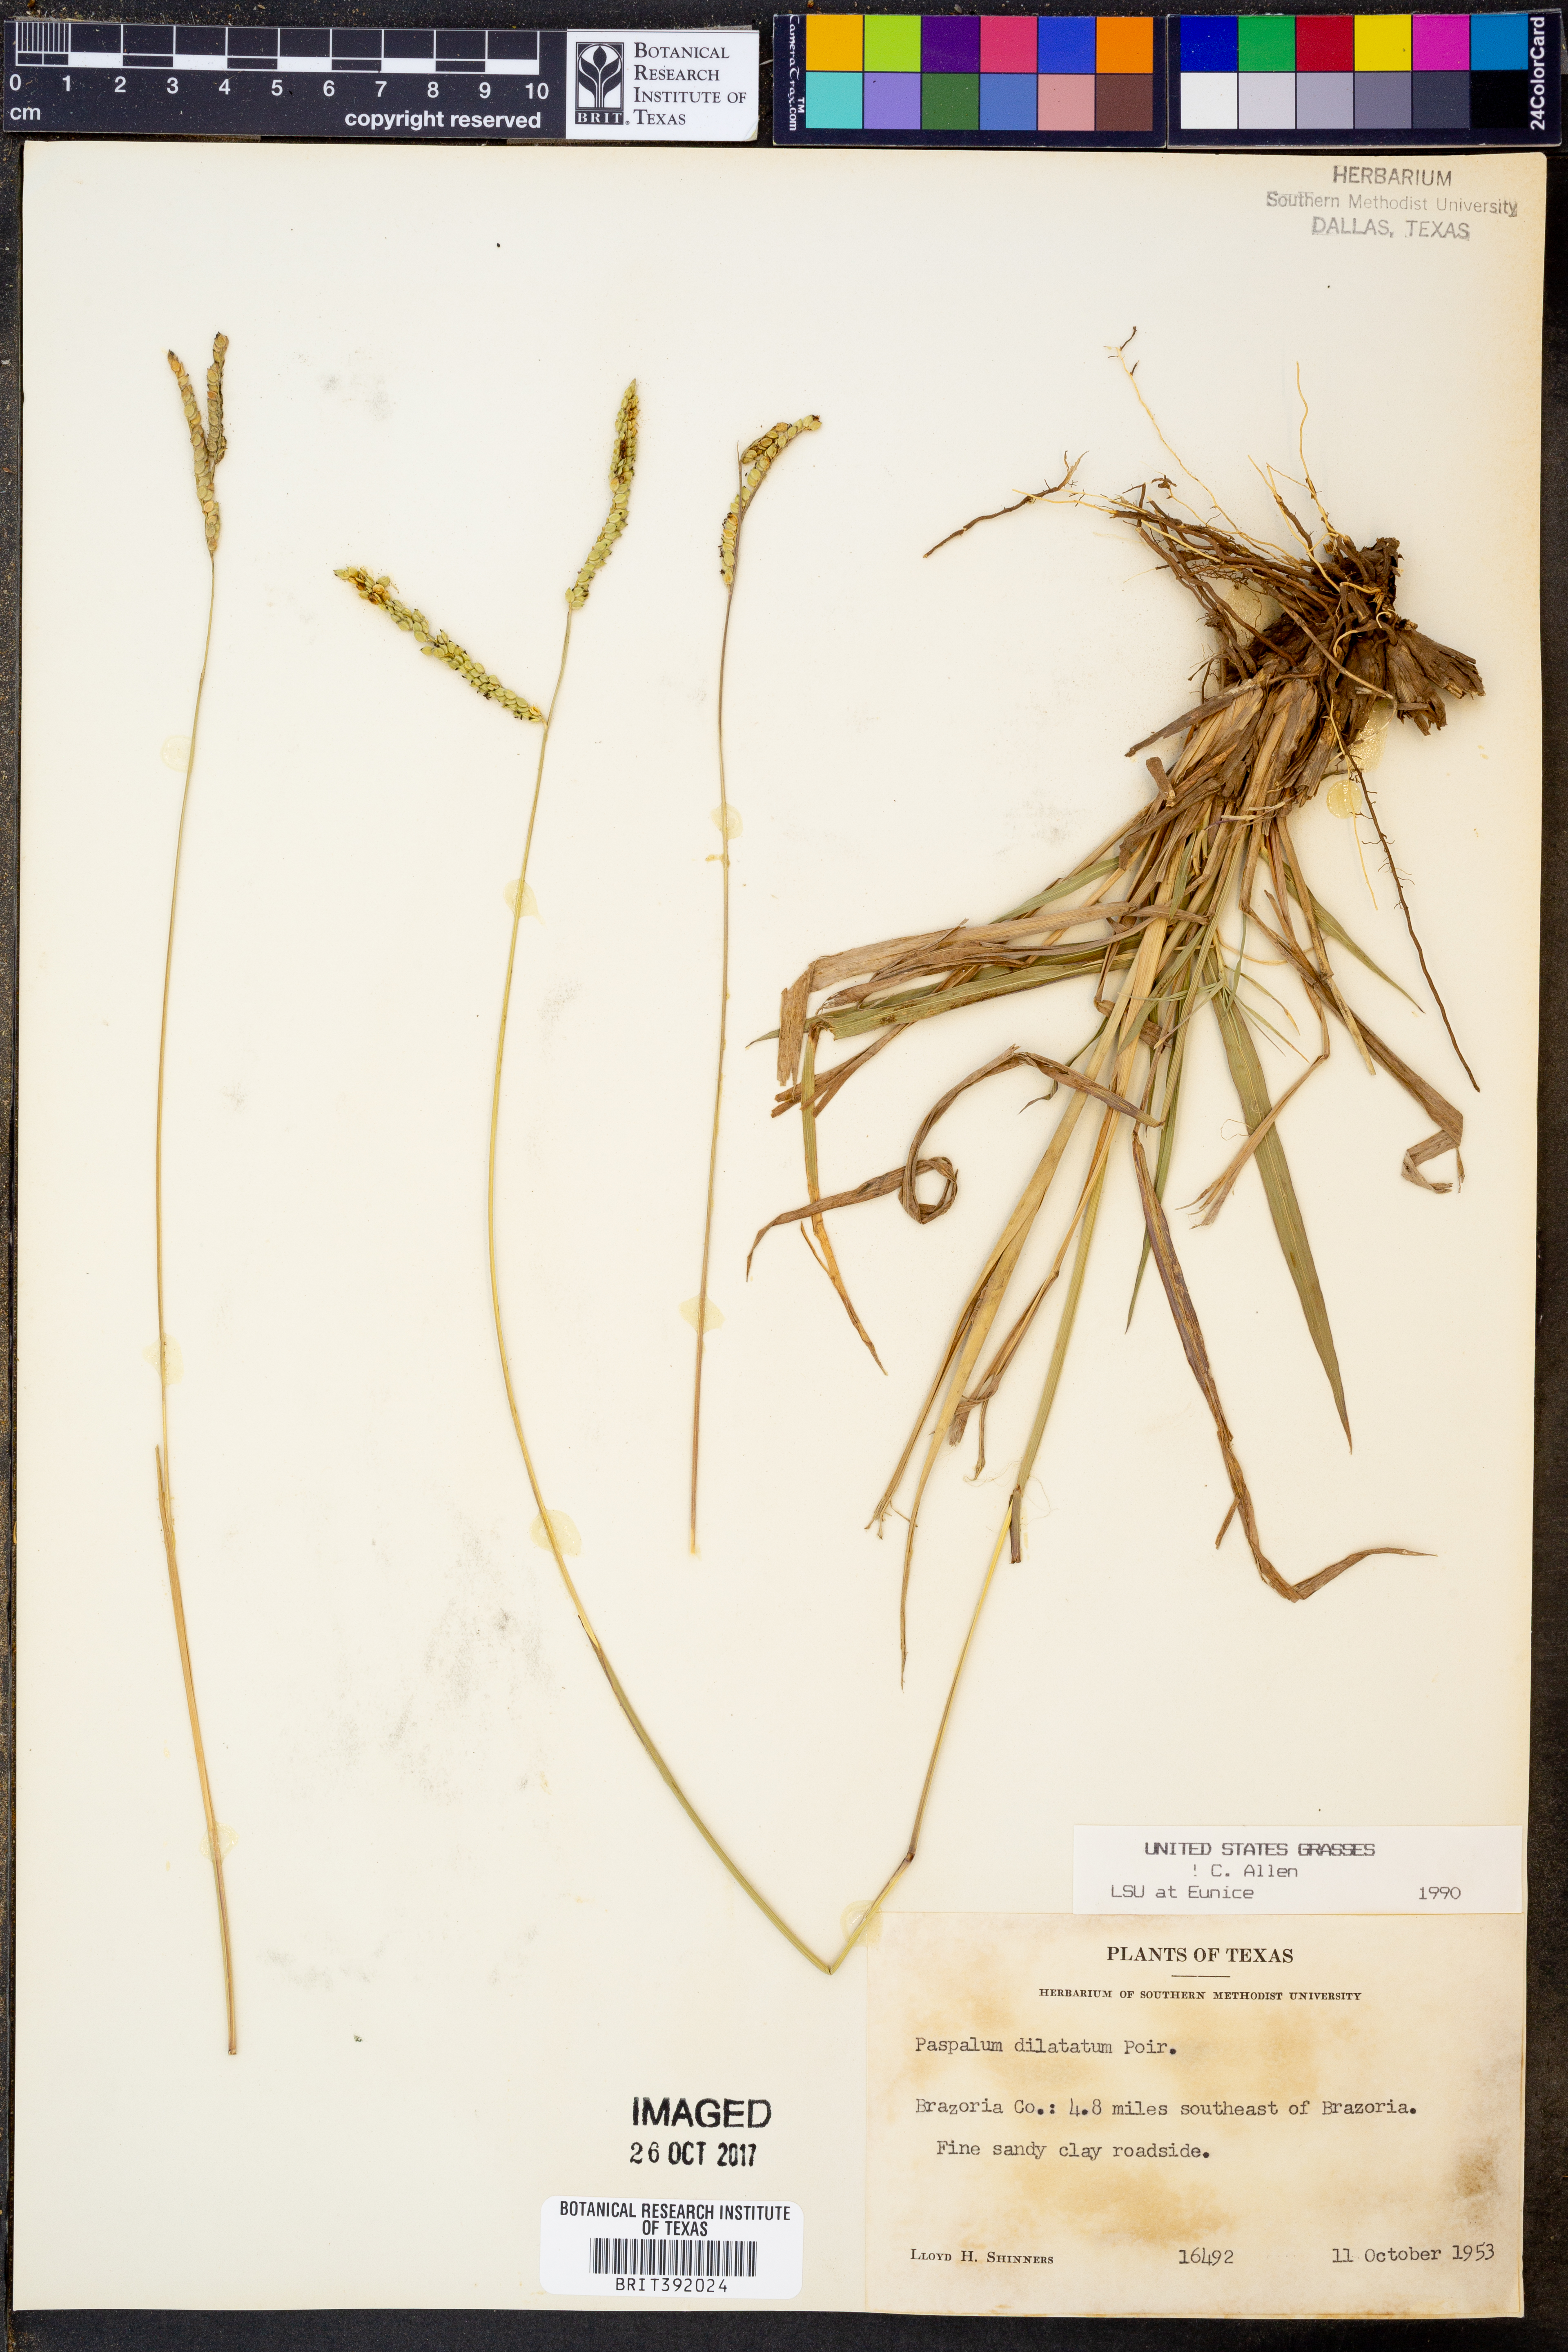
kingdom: Plantae
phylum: Tracheophyta
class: Liliopsida
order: Poales
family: Poaceae
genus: Paspalum
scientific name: Paspalum dilatatum
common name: Dallisgrass
